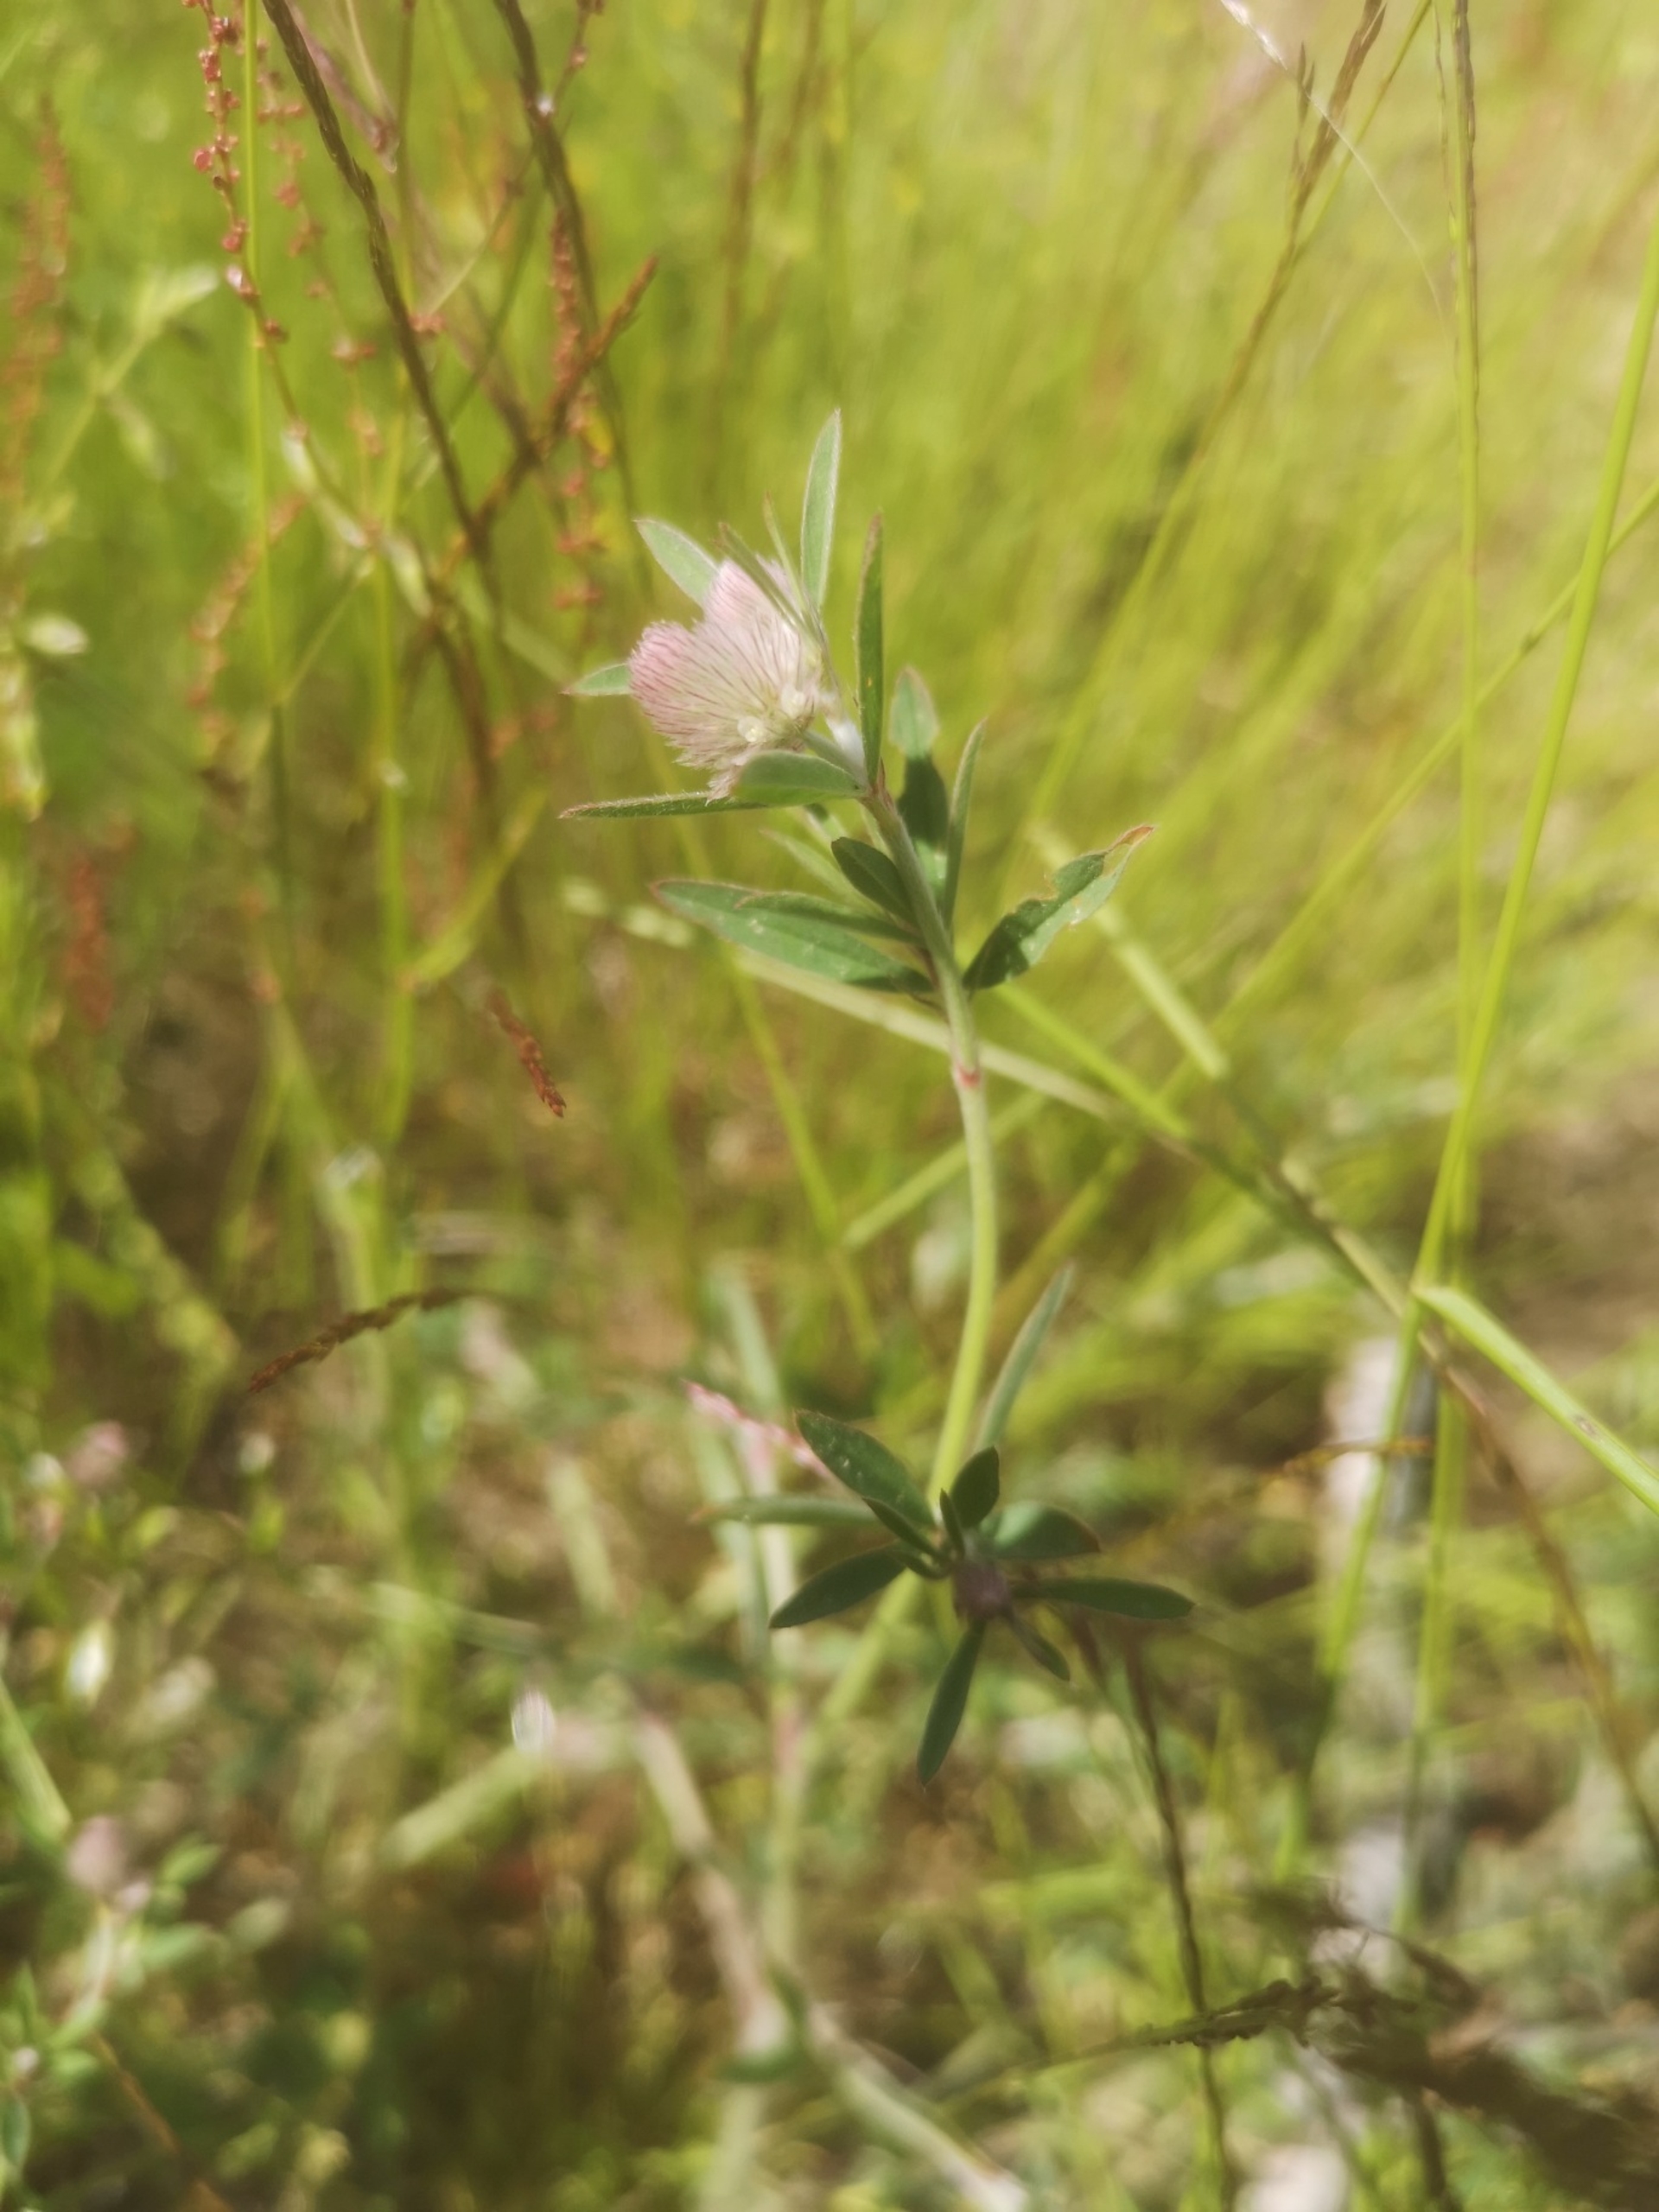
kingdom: Plantae
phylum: Tracheophyta
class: Magnoliopsida
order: Fabales
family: Fabaceae
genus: Trifolium
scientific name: Trifolium arvense
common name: Hare-kløver
